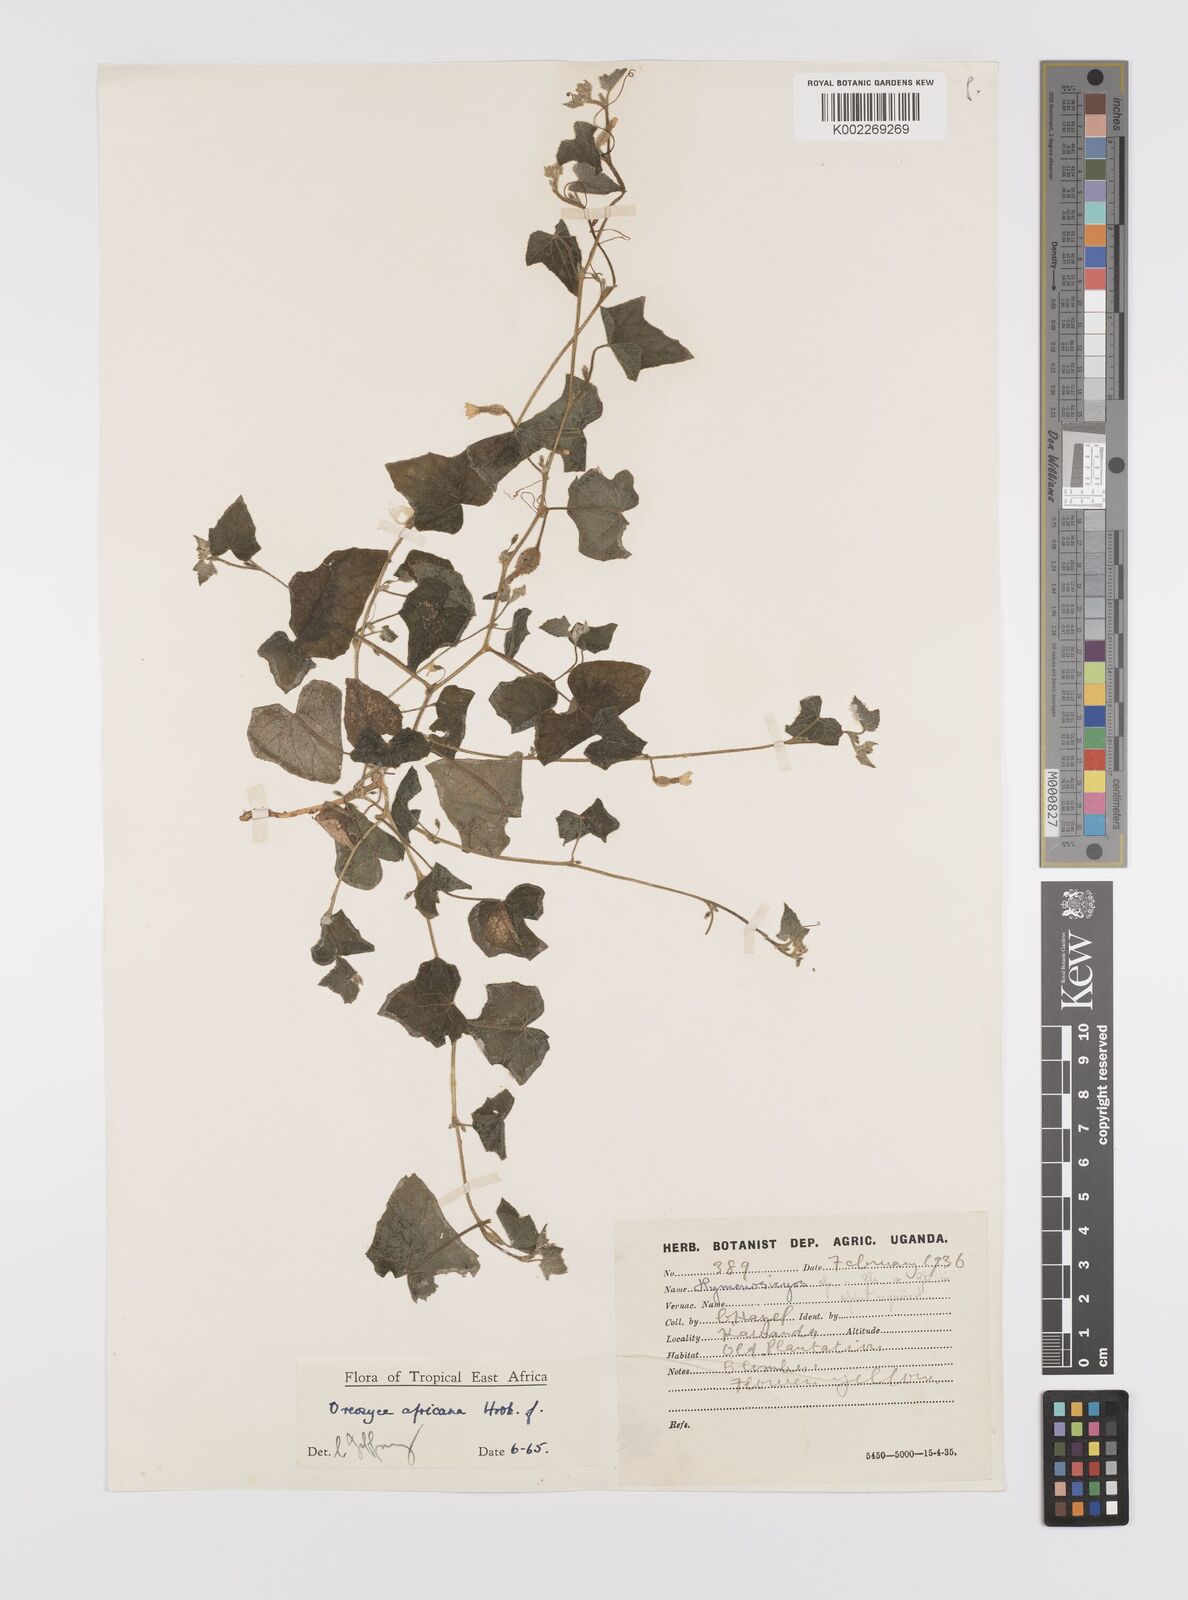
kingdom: Plantae
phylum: Tracheophyta
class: Magnoliopsida
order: Cucurbitales
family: Cucurbitaceae
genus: Cucumis
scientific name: Cucumis oreosyce
